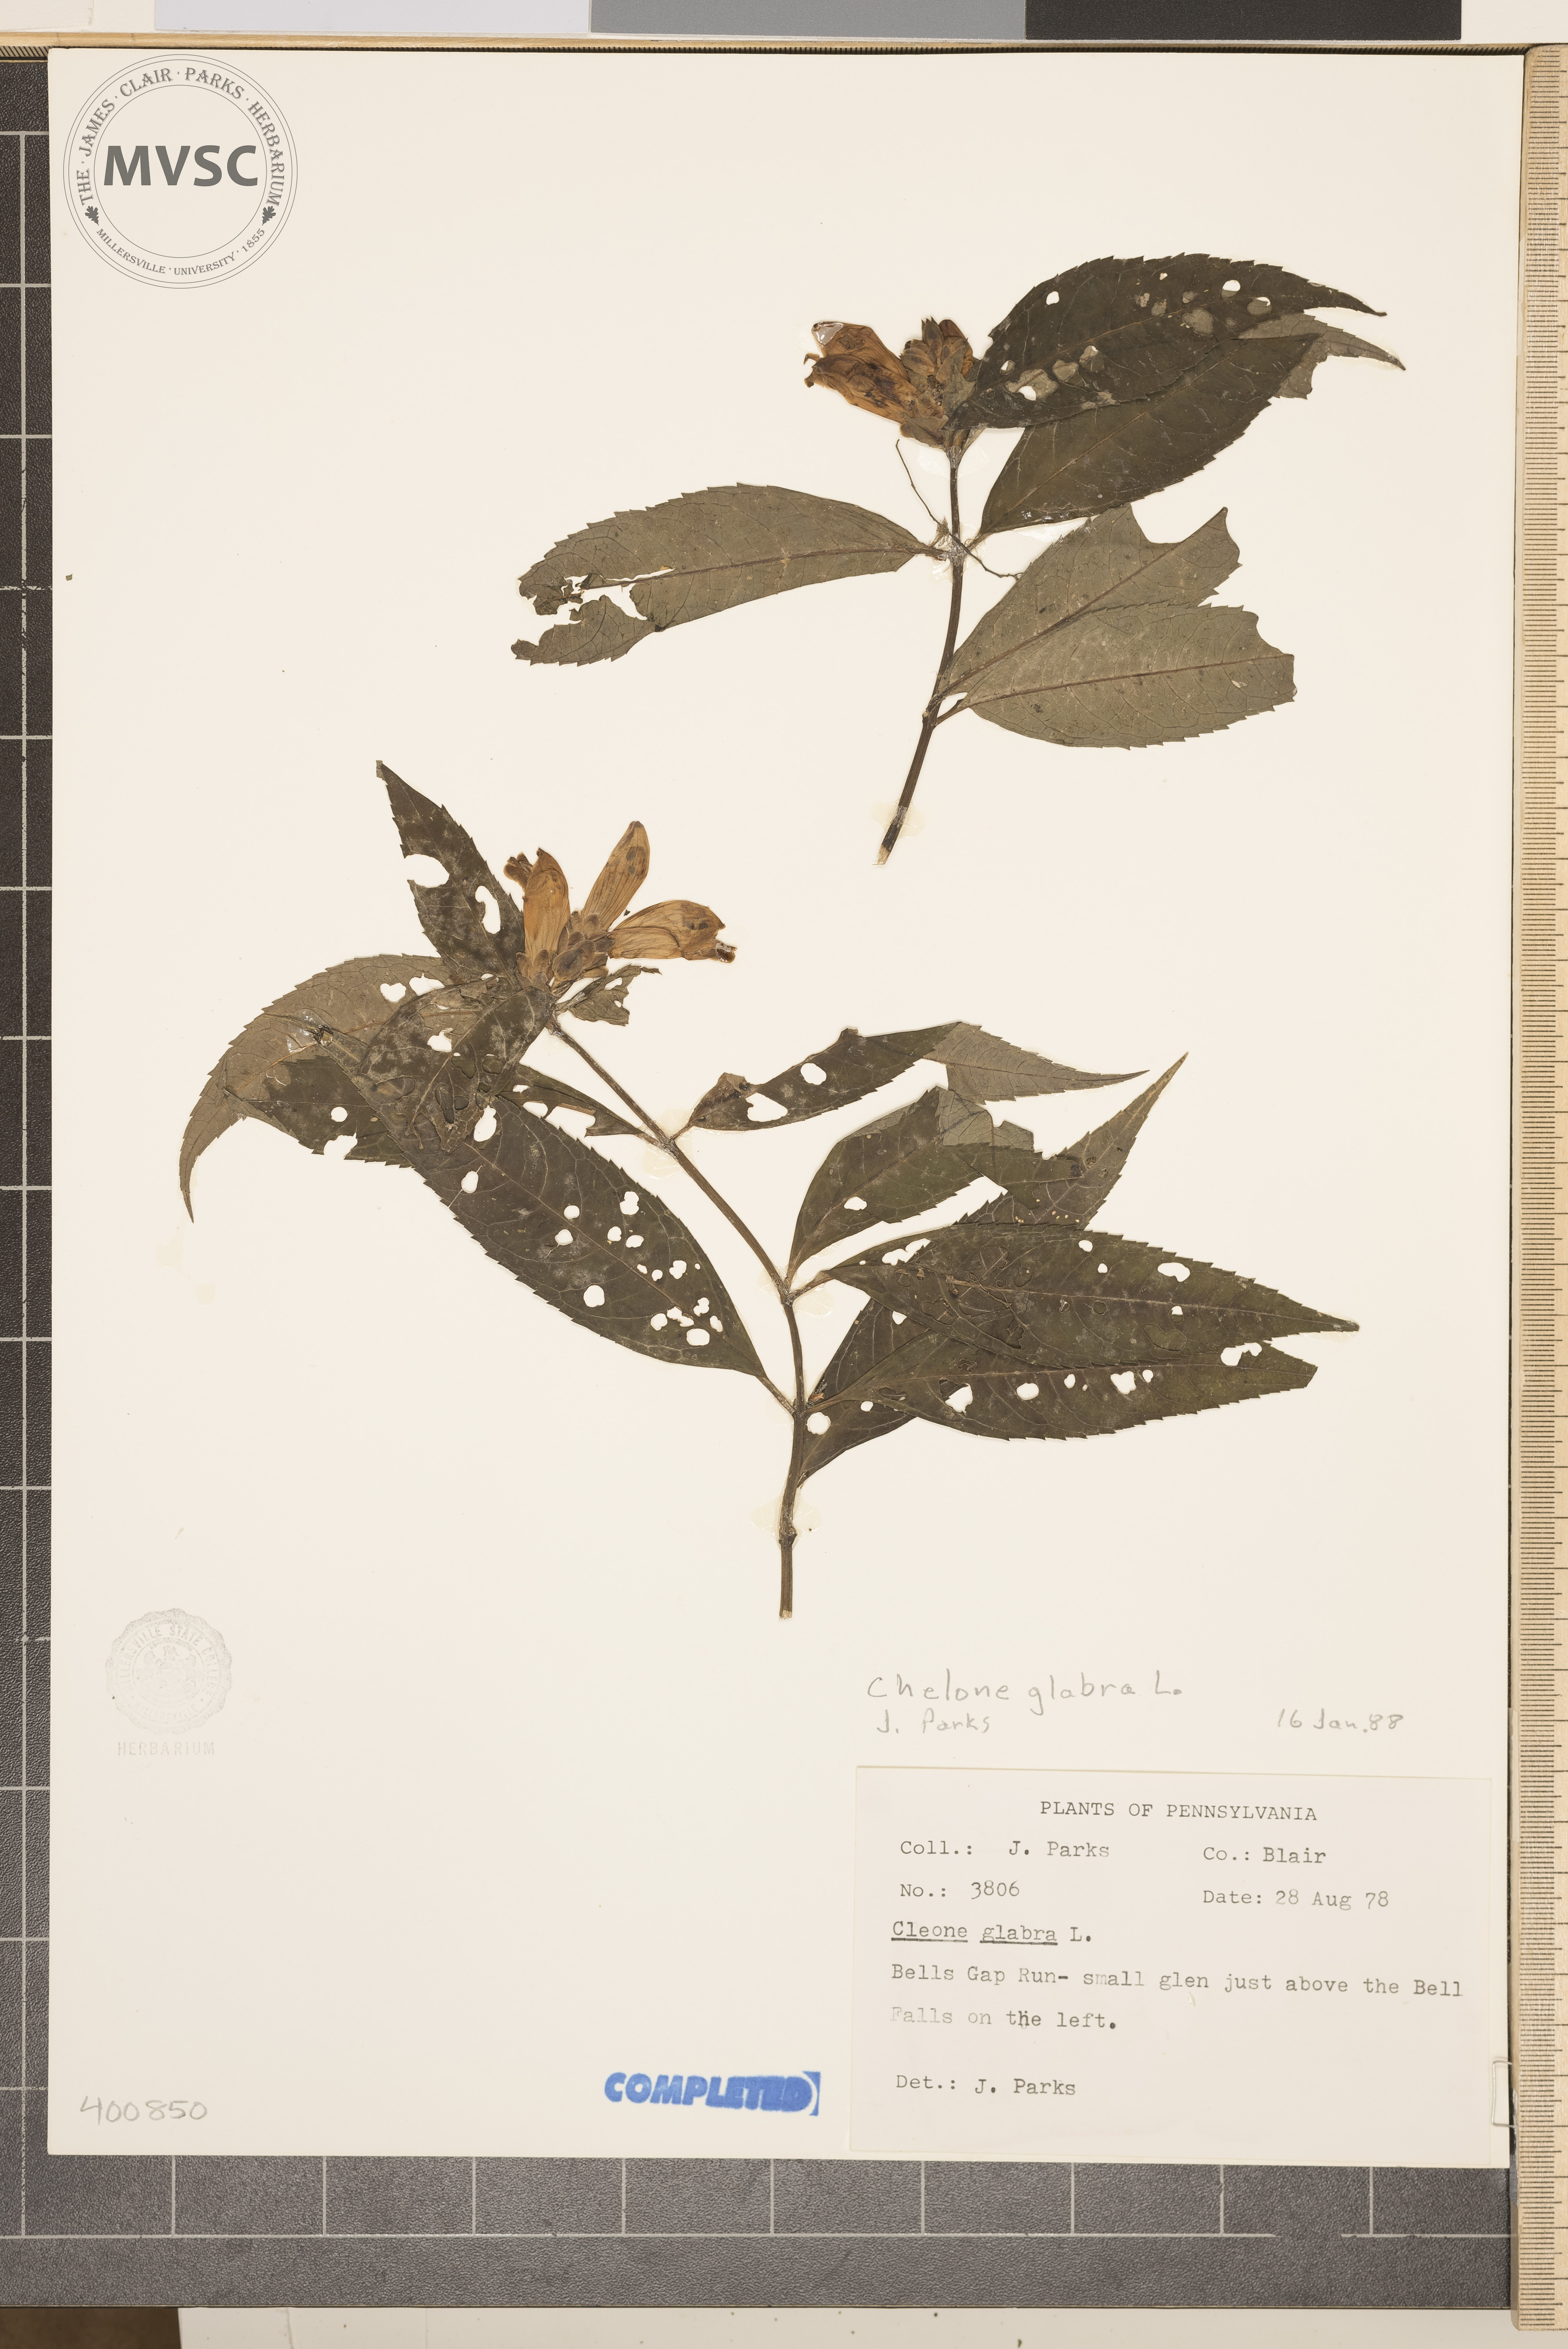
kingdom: Plantae
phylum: Tracheophyta
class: Magnoliopsida
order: Lamiales
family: Plantaginaceae
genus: Chelone
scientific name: Chelone glabra
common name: turtlehead
